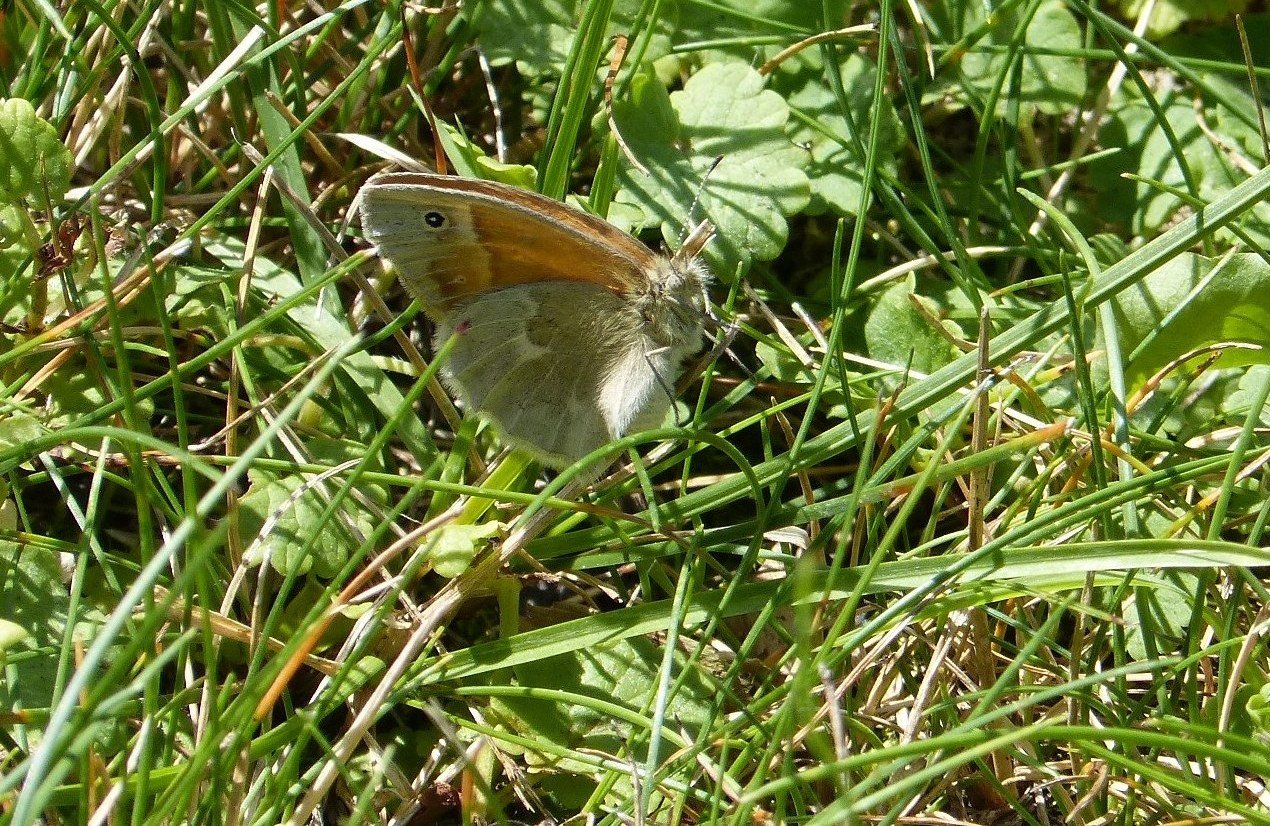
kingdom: Animalia
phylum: Arthropoda
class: Insecta
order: Lepidoptera
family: Nymphalidae
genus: Coenonympha
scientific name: Coenonympha tullia
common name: Large Heath
